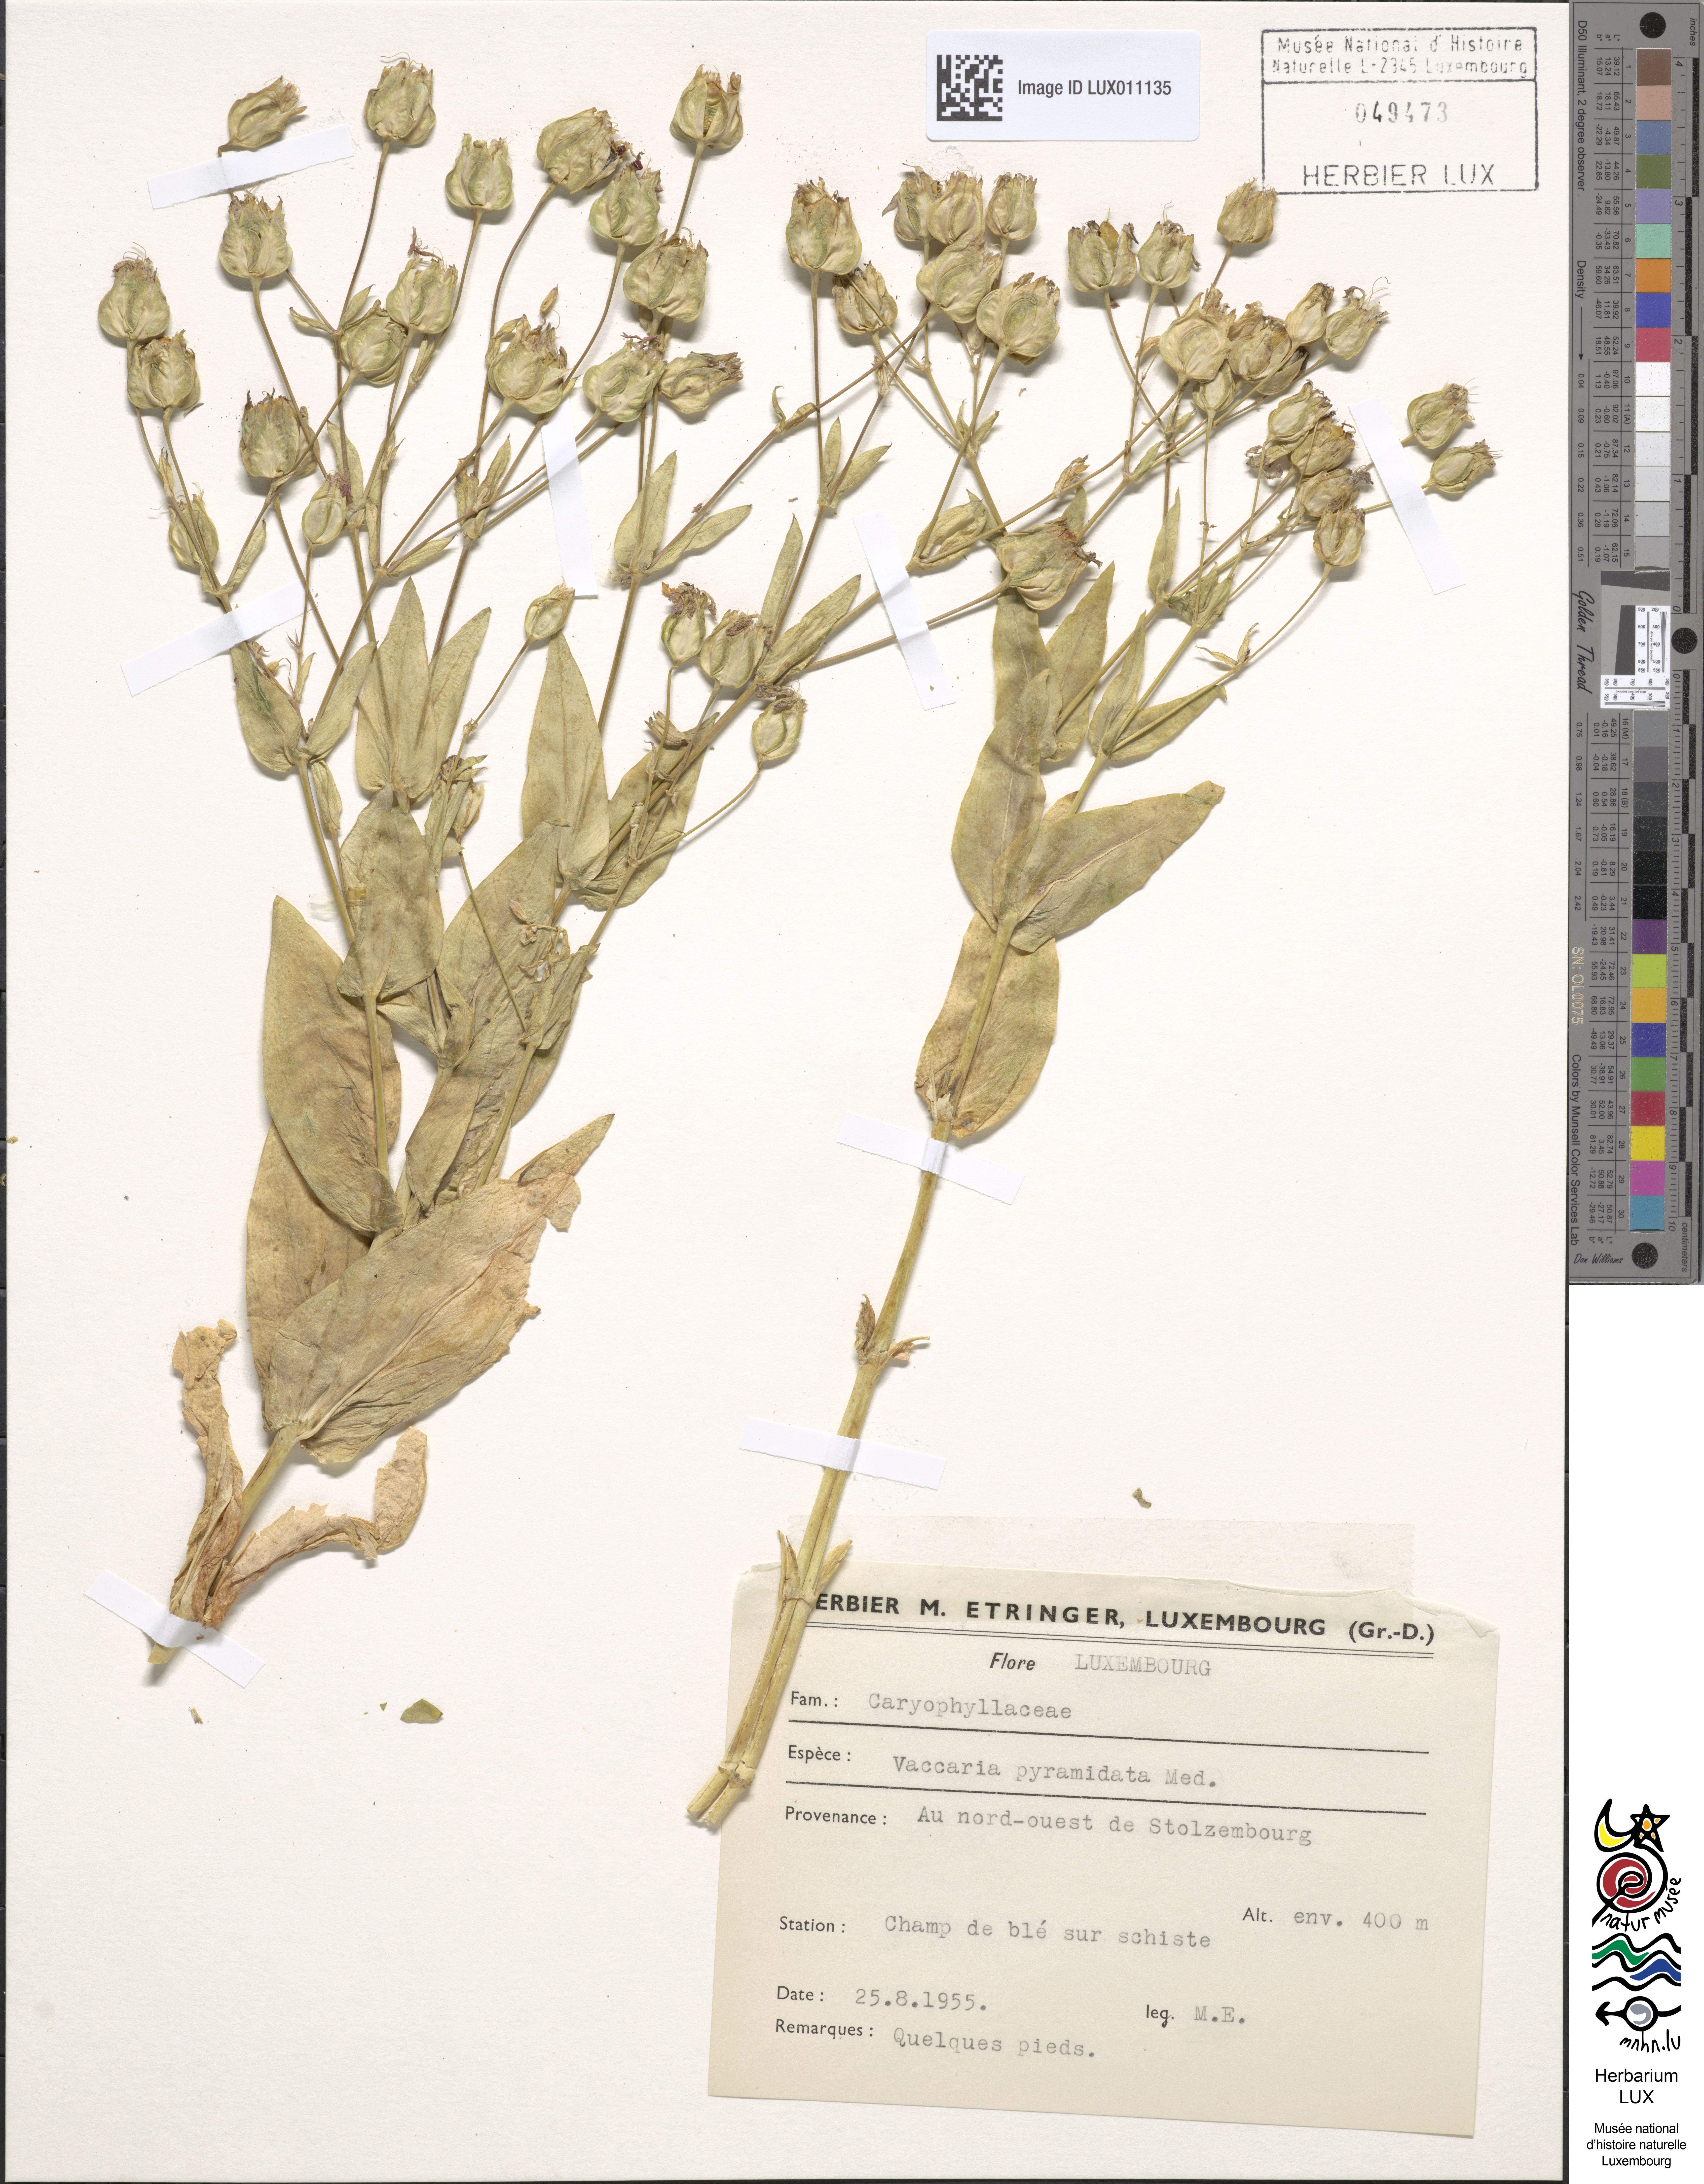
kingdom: Plantae
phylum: Tracheophyta
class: Magnoliopsida
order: Caryophyllales
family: Caryophyllaceae
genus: Gypsophila
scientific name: Gypsophila vaccaria
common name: Cow soapwort
